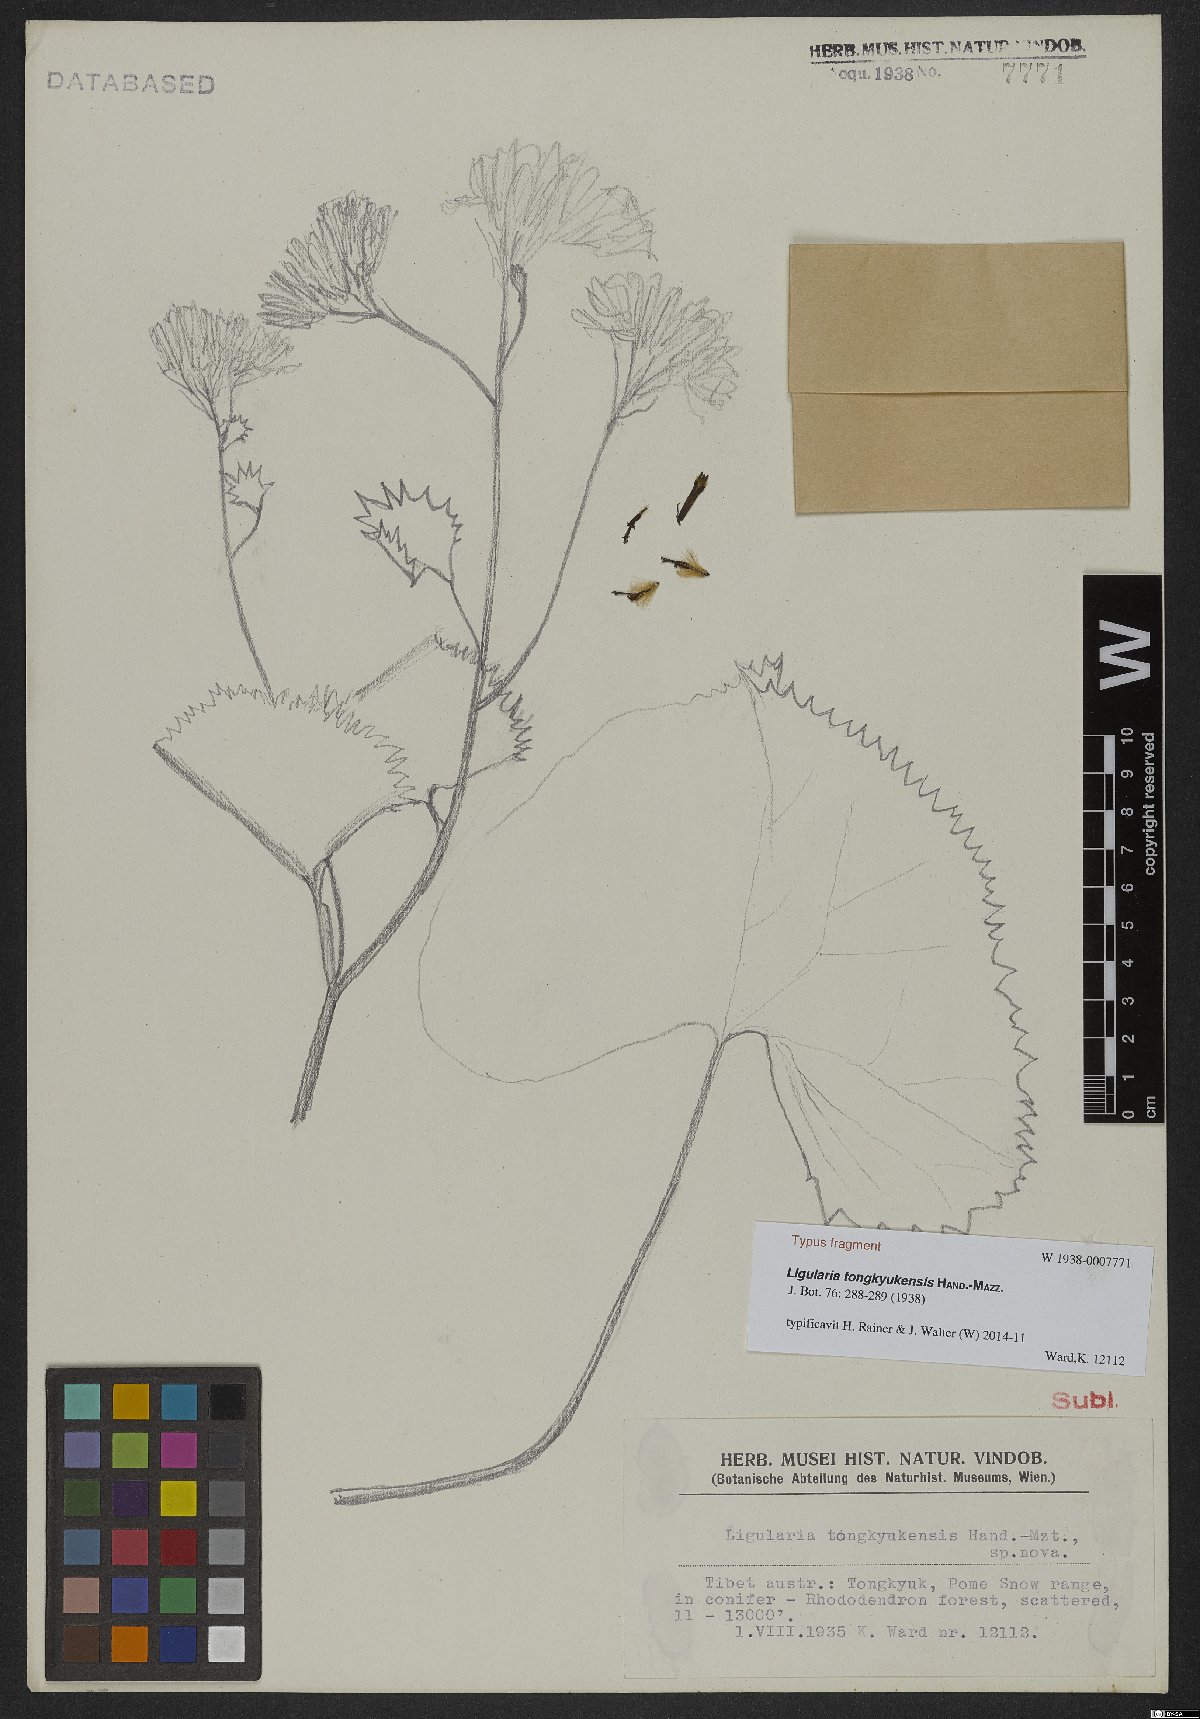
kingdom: Plantae
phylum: Tracheophyta
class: Magnoliopsida
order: Asterales
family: Asteraceae
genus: Ligularia
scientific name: Ligularia tongkyukensis
